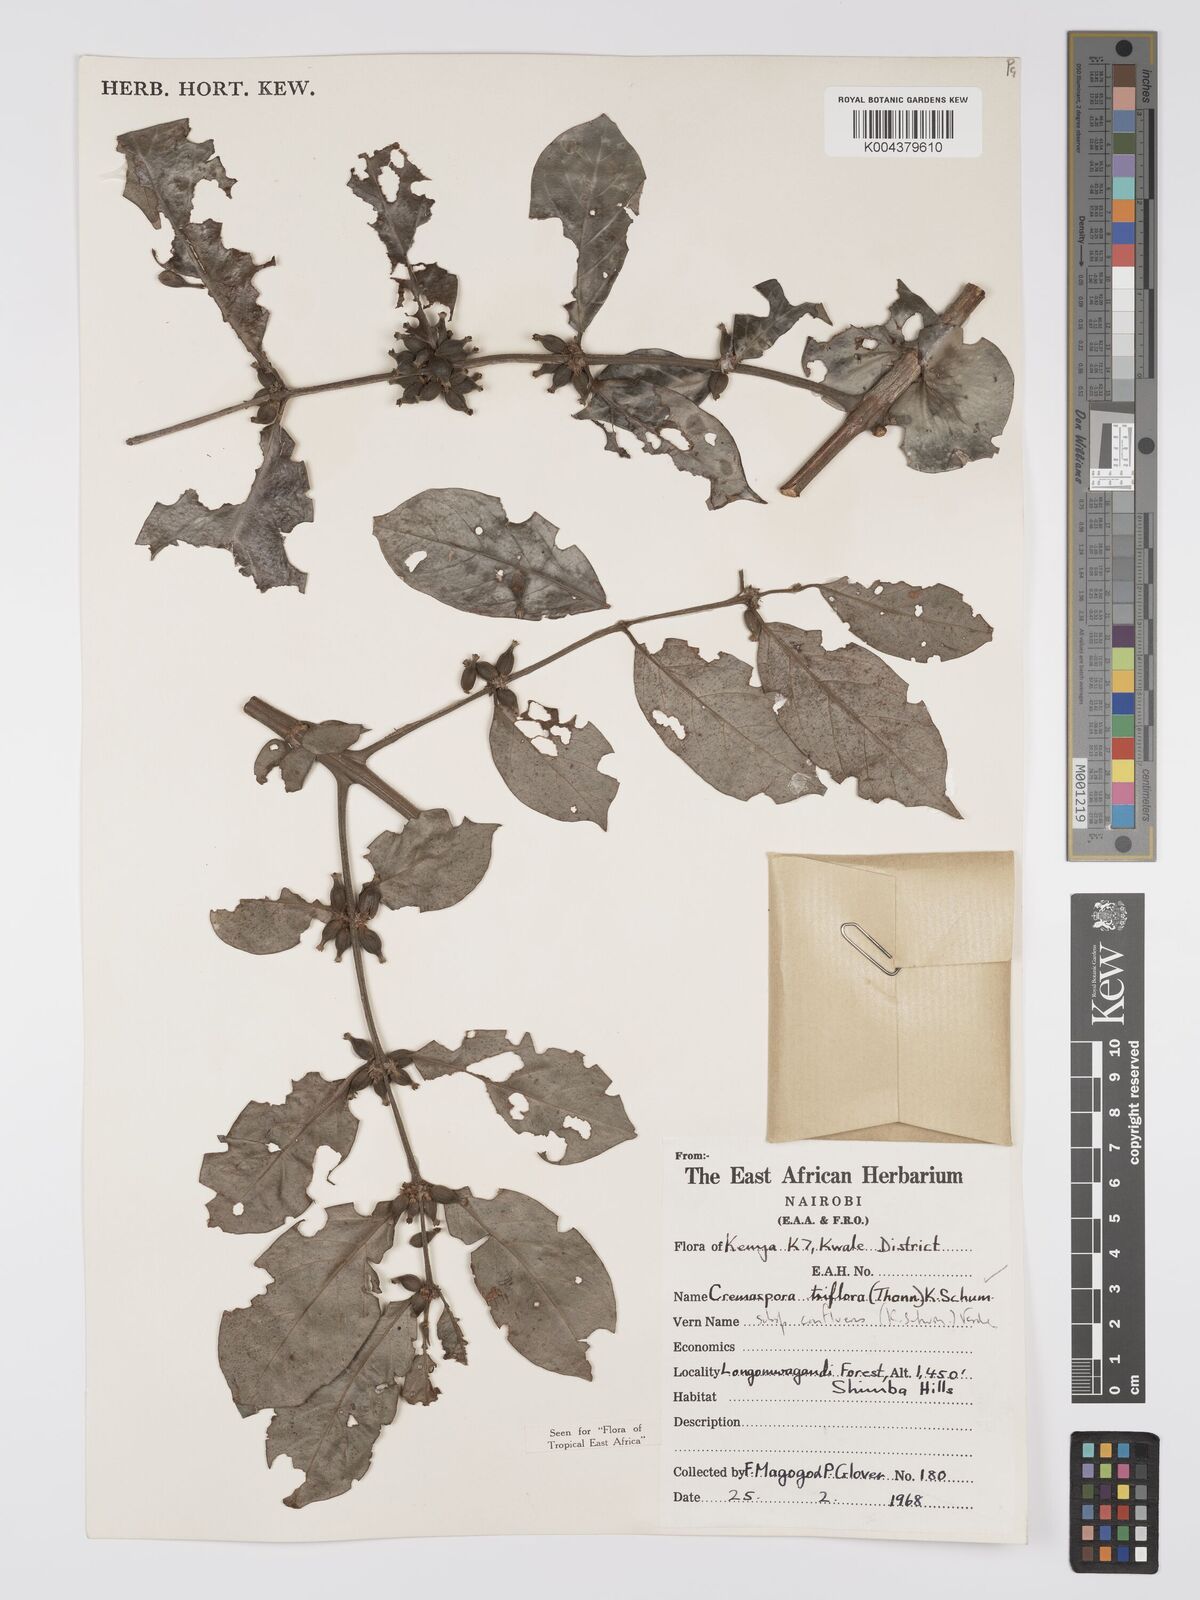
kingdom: Plantae
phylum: Tracheophyta
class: Magnoliopsida
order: Gentianales
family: Rubiaceae
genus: Cremaspora
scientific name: Cremaspora triflora
